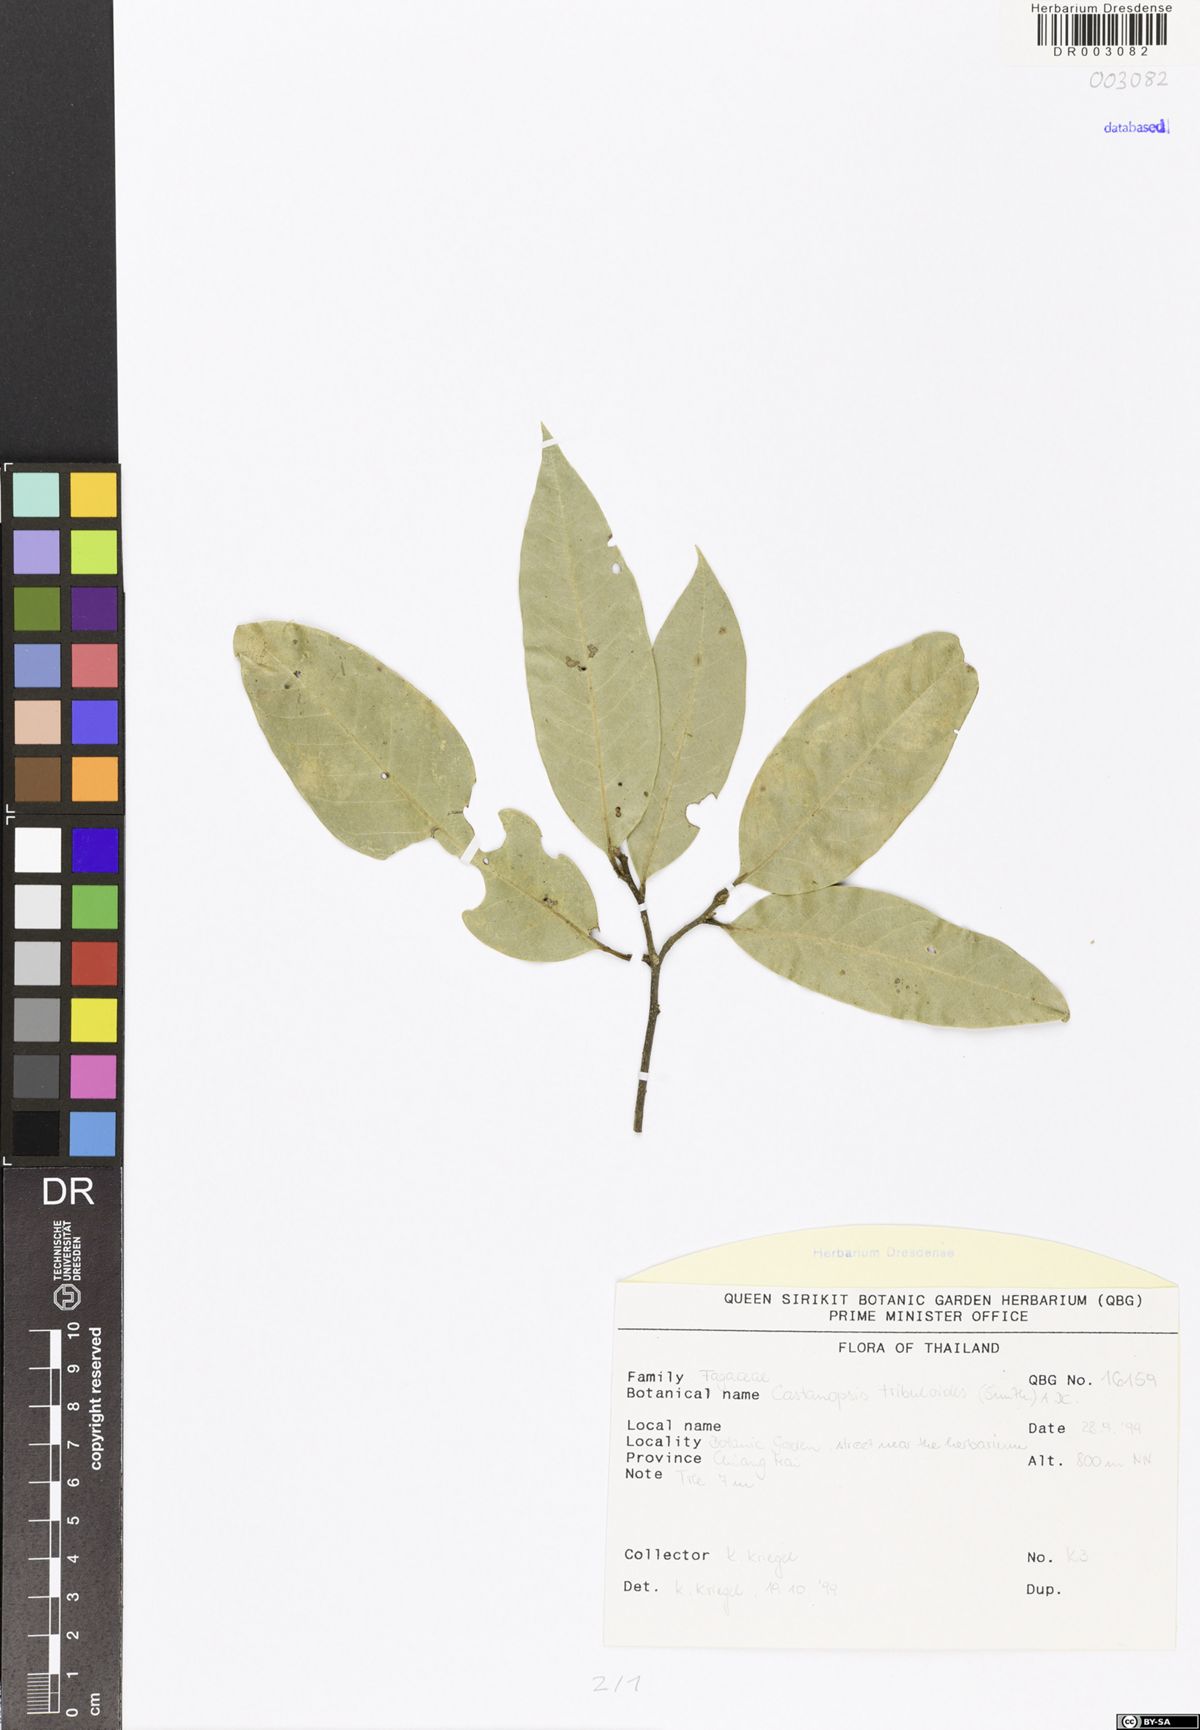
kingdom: Plantae
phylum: Tracheophyta
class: Magnoliopsida
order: Fagales
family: Fagaceae
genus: Castanopsis
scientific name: Castanopsis tribuloides
